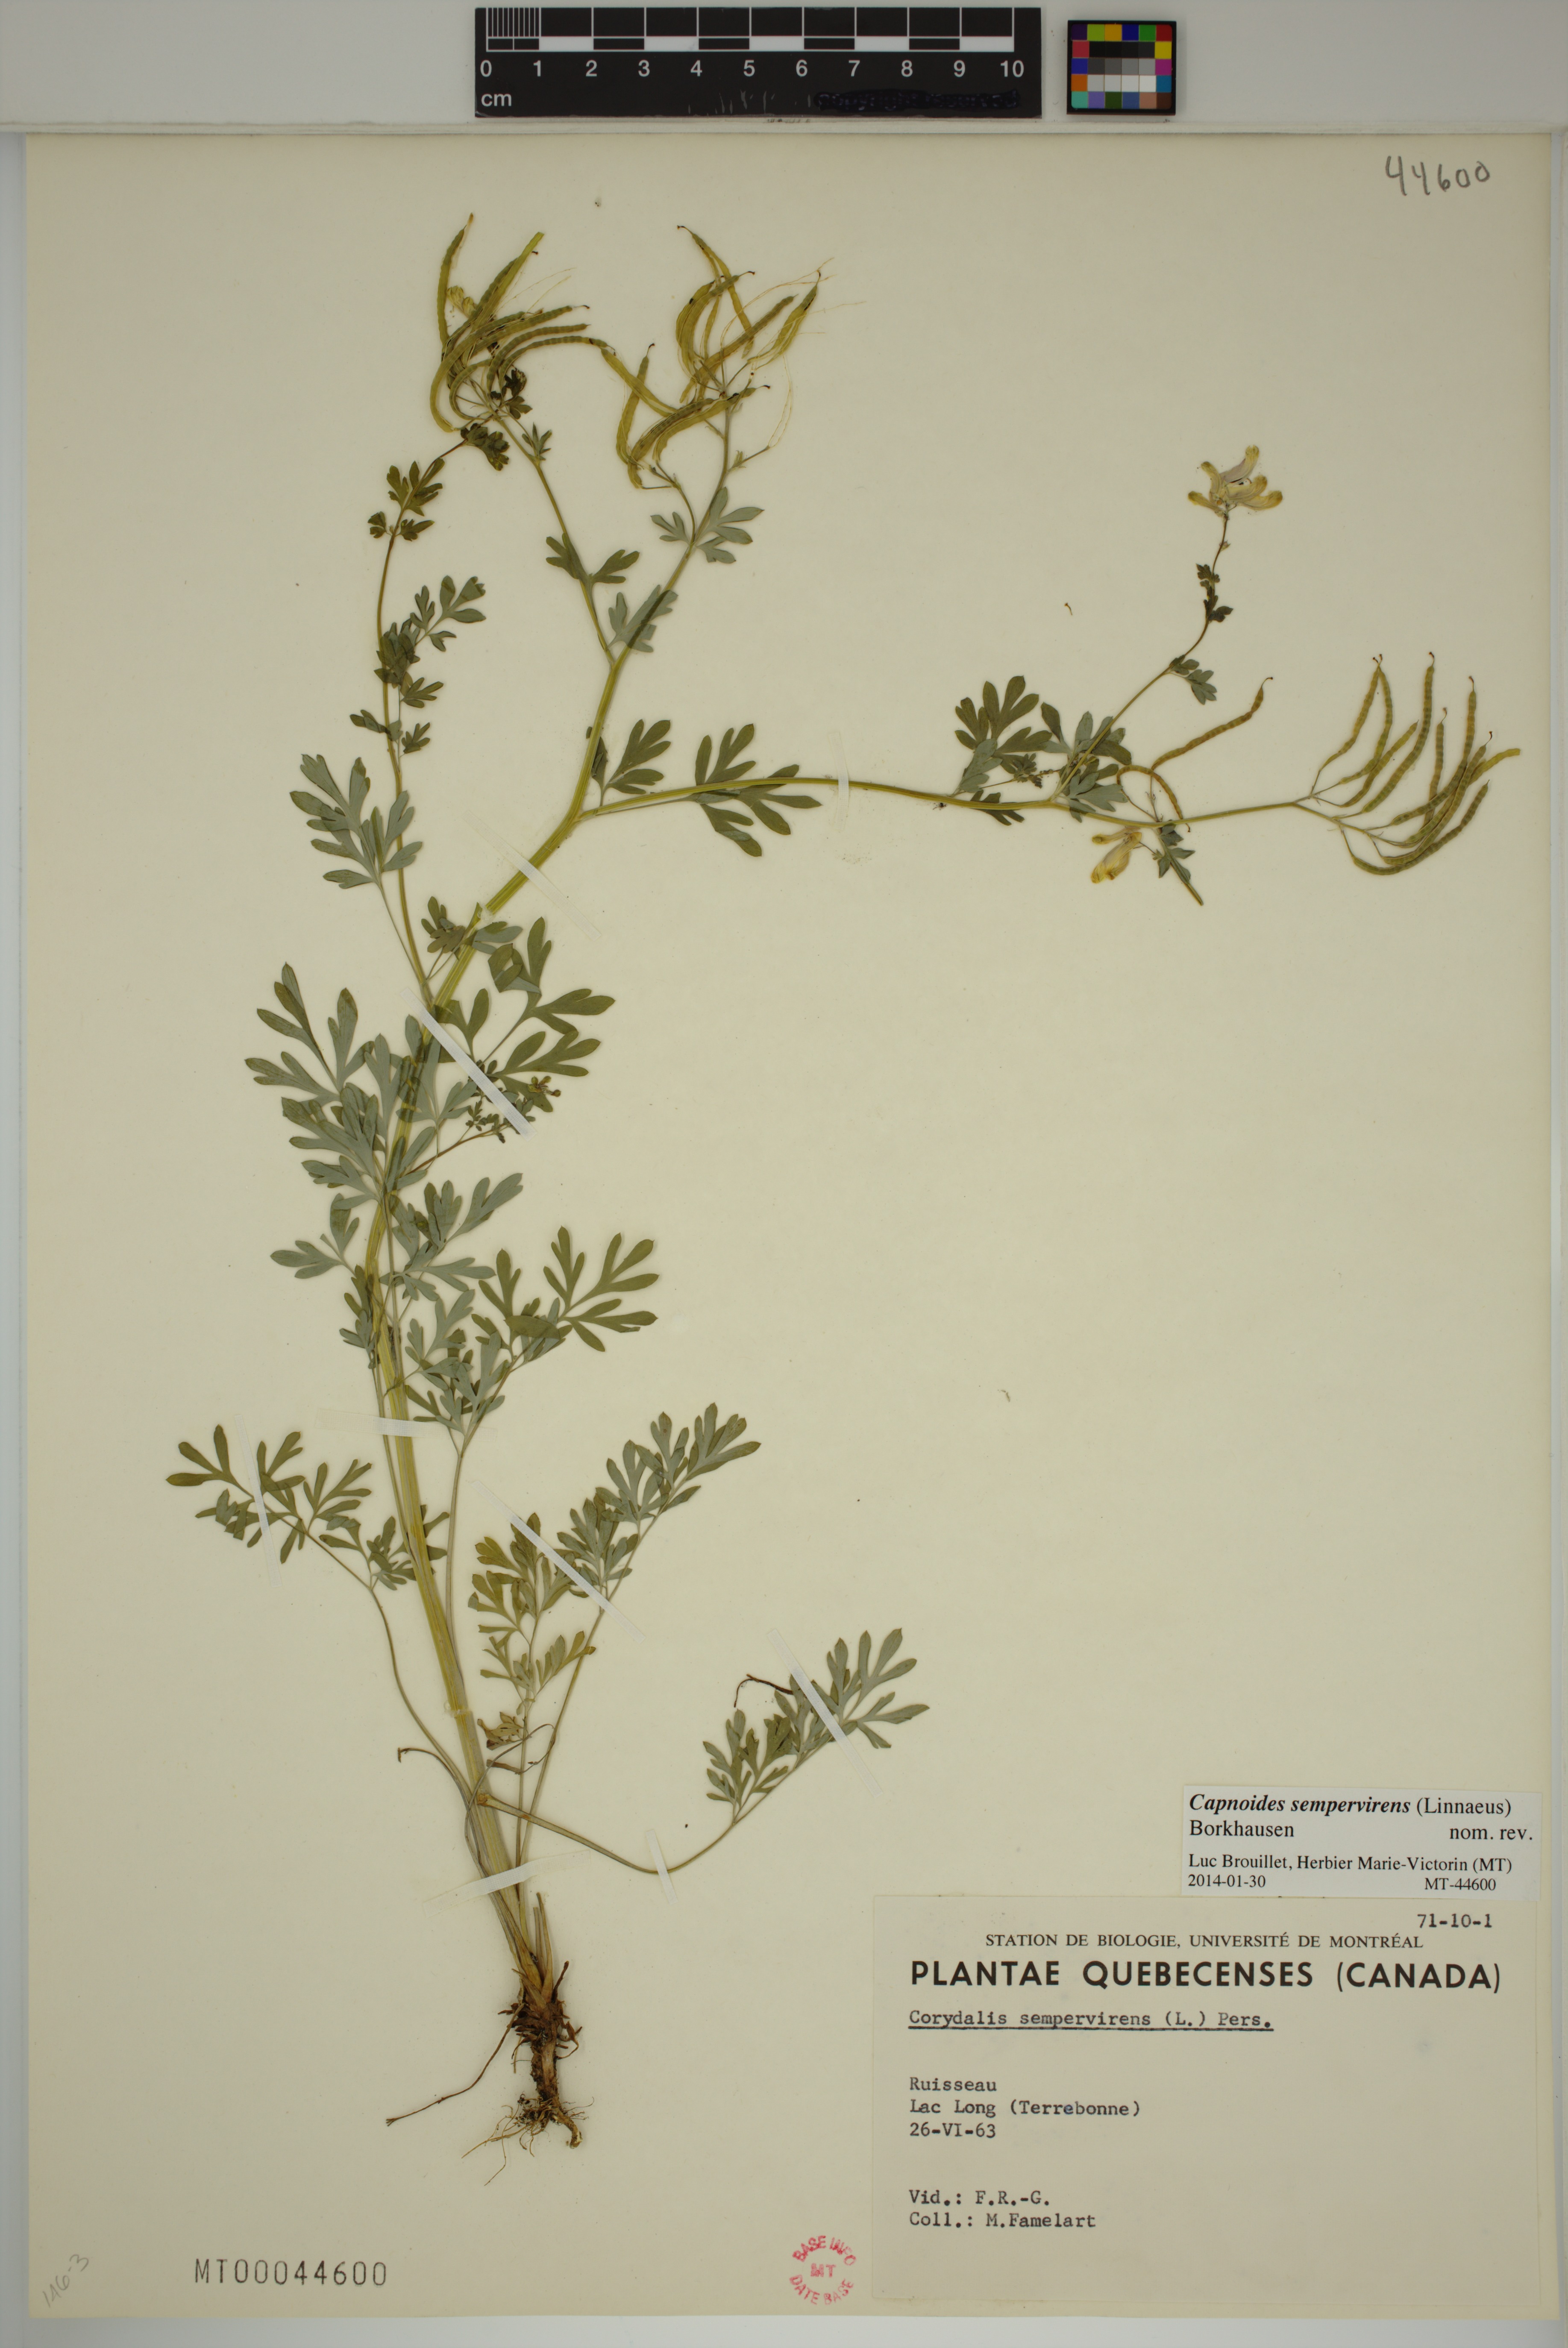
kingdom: Plantae
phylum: Tracheophyta
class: Magnoliopsida
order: Ranunculales
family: Papaveraceae
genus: Capnoides
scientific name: Capnoides sempervirens
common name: Rock harlequin
